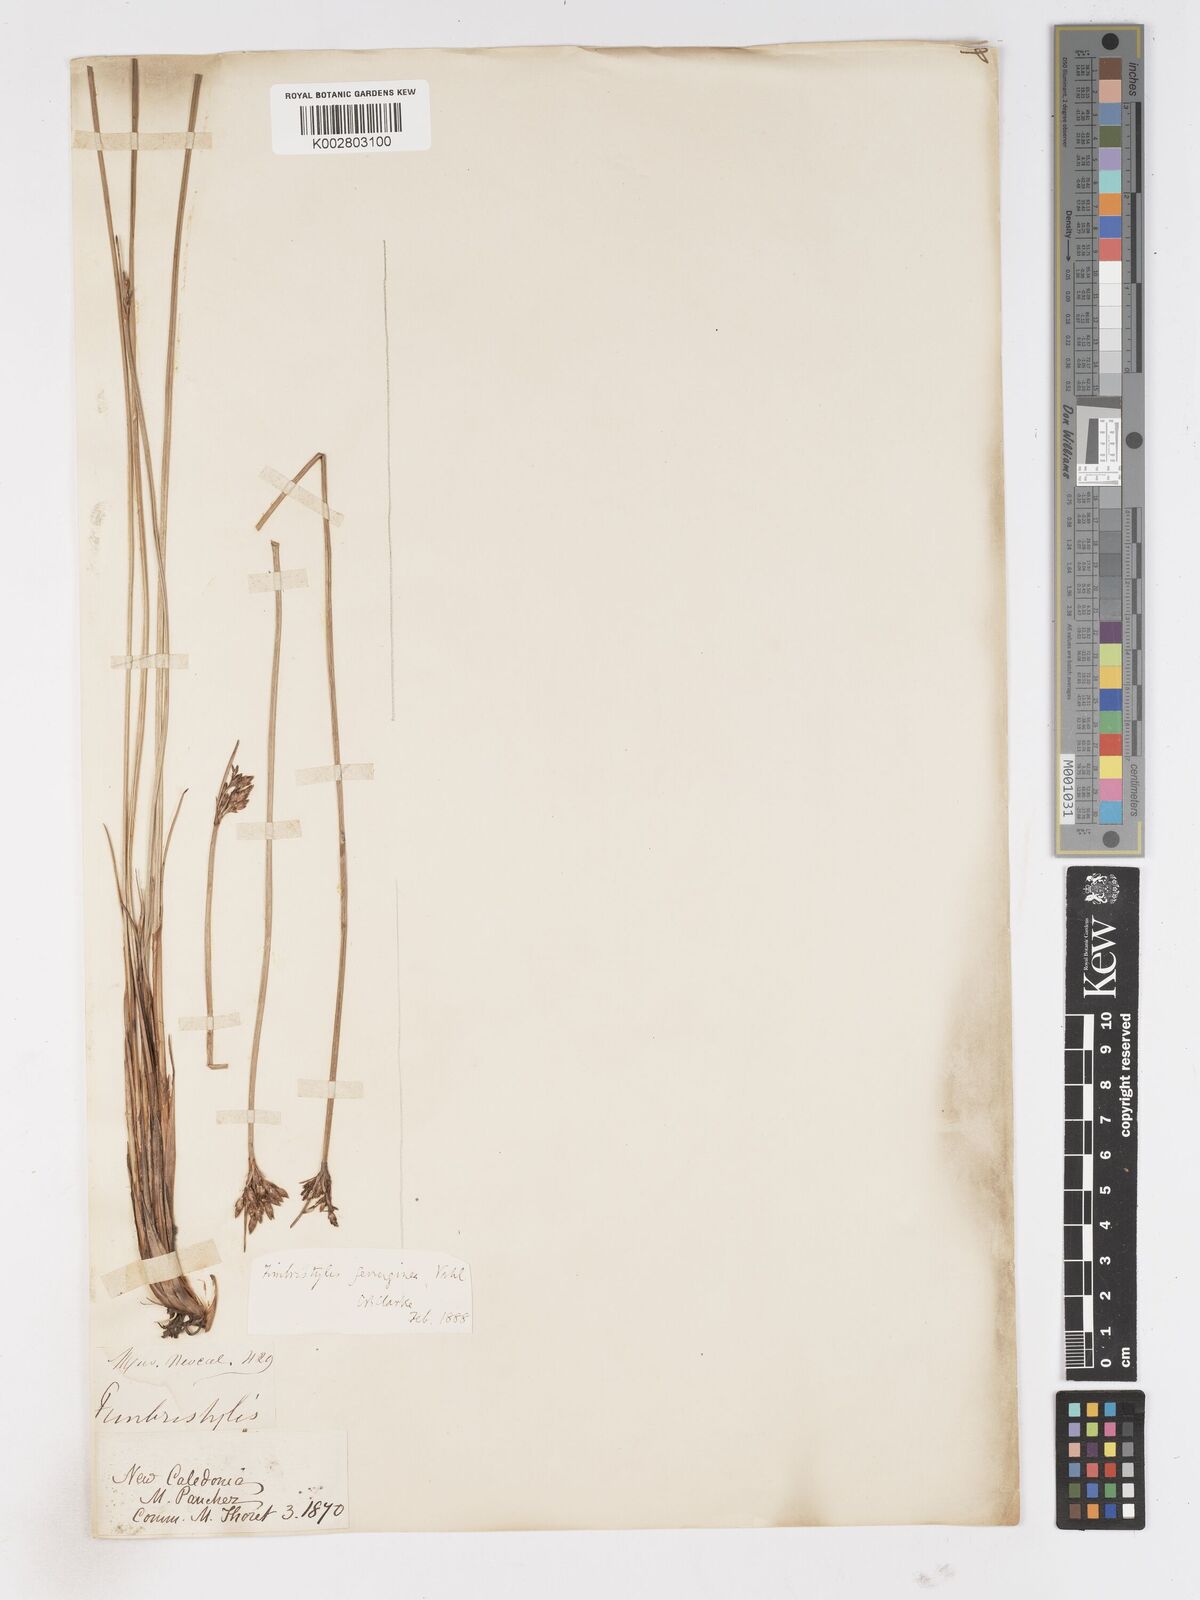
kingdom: Plantae
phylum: Tracheophyta
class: Liliopsida
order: Poales
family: Cyperaceae
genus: Fimbristylis
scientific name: Fimbristylis ferruginea
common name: West indian fimbry
